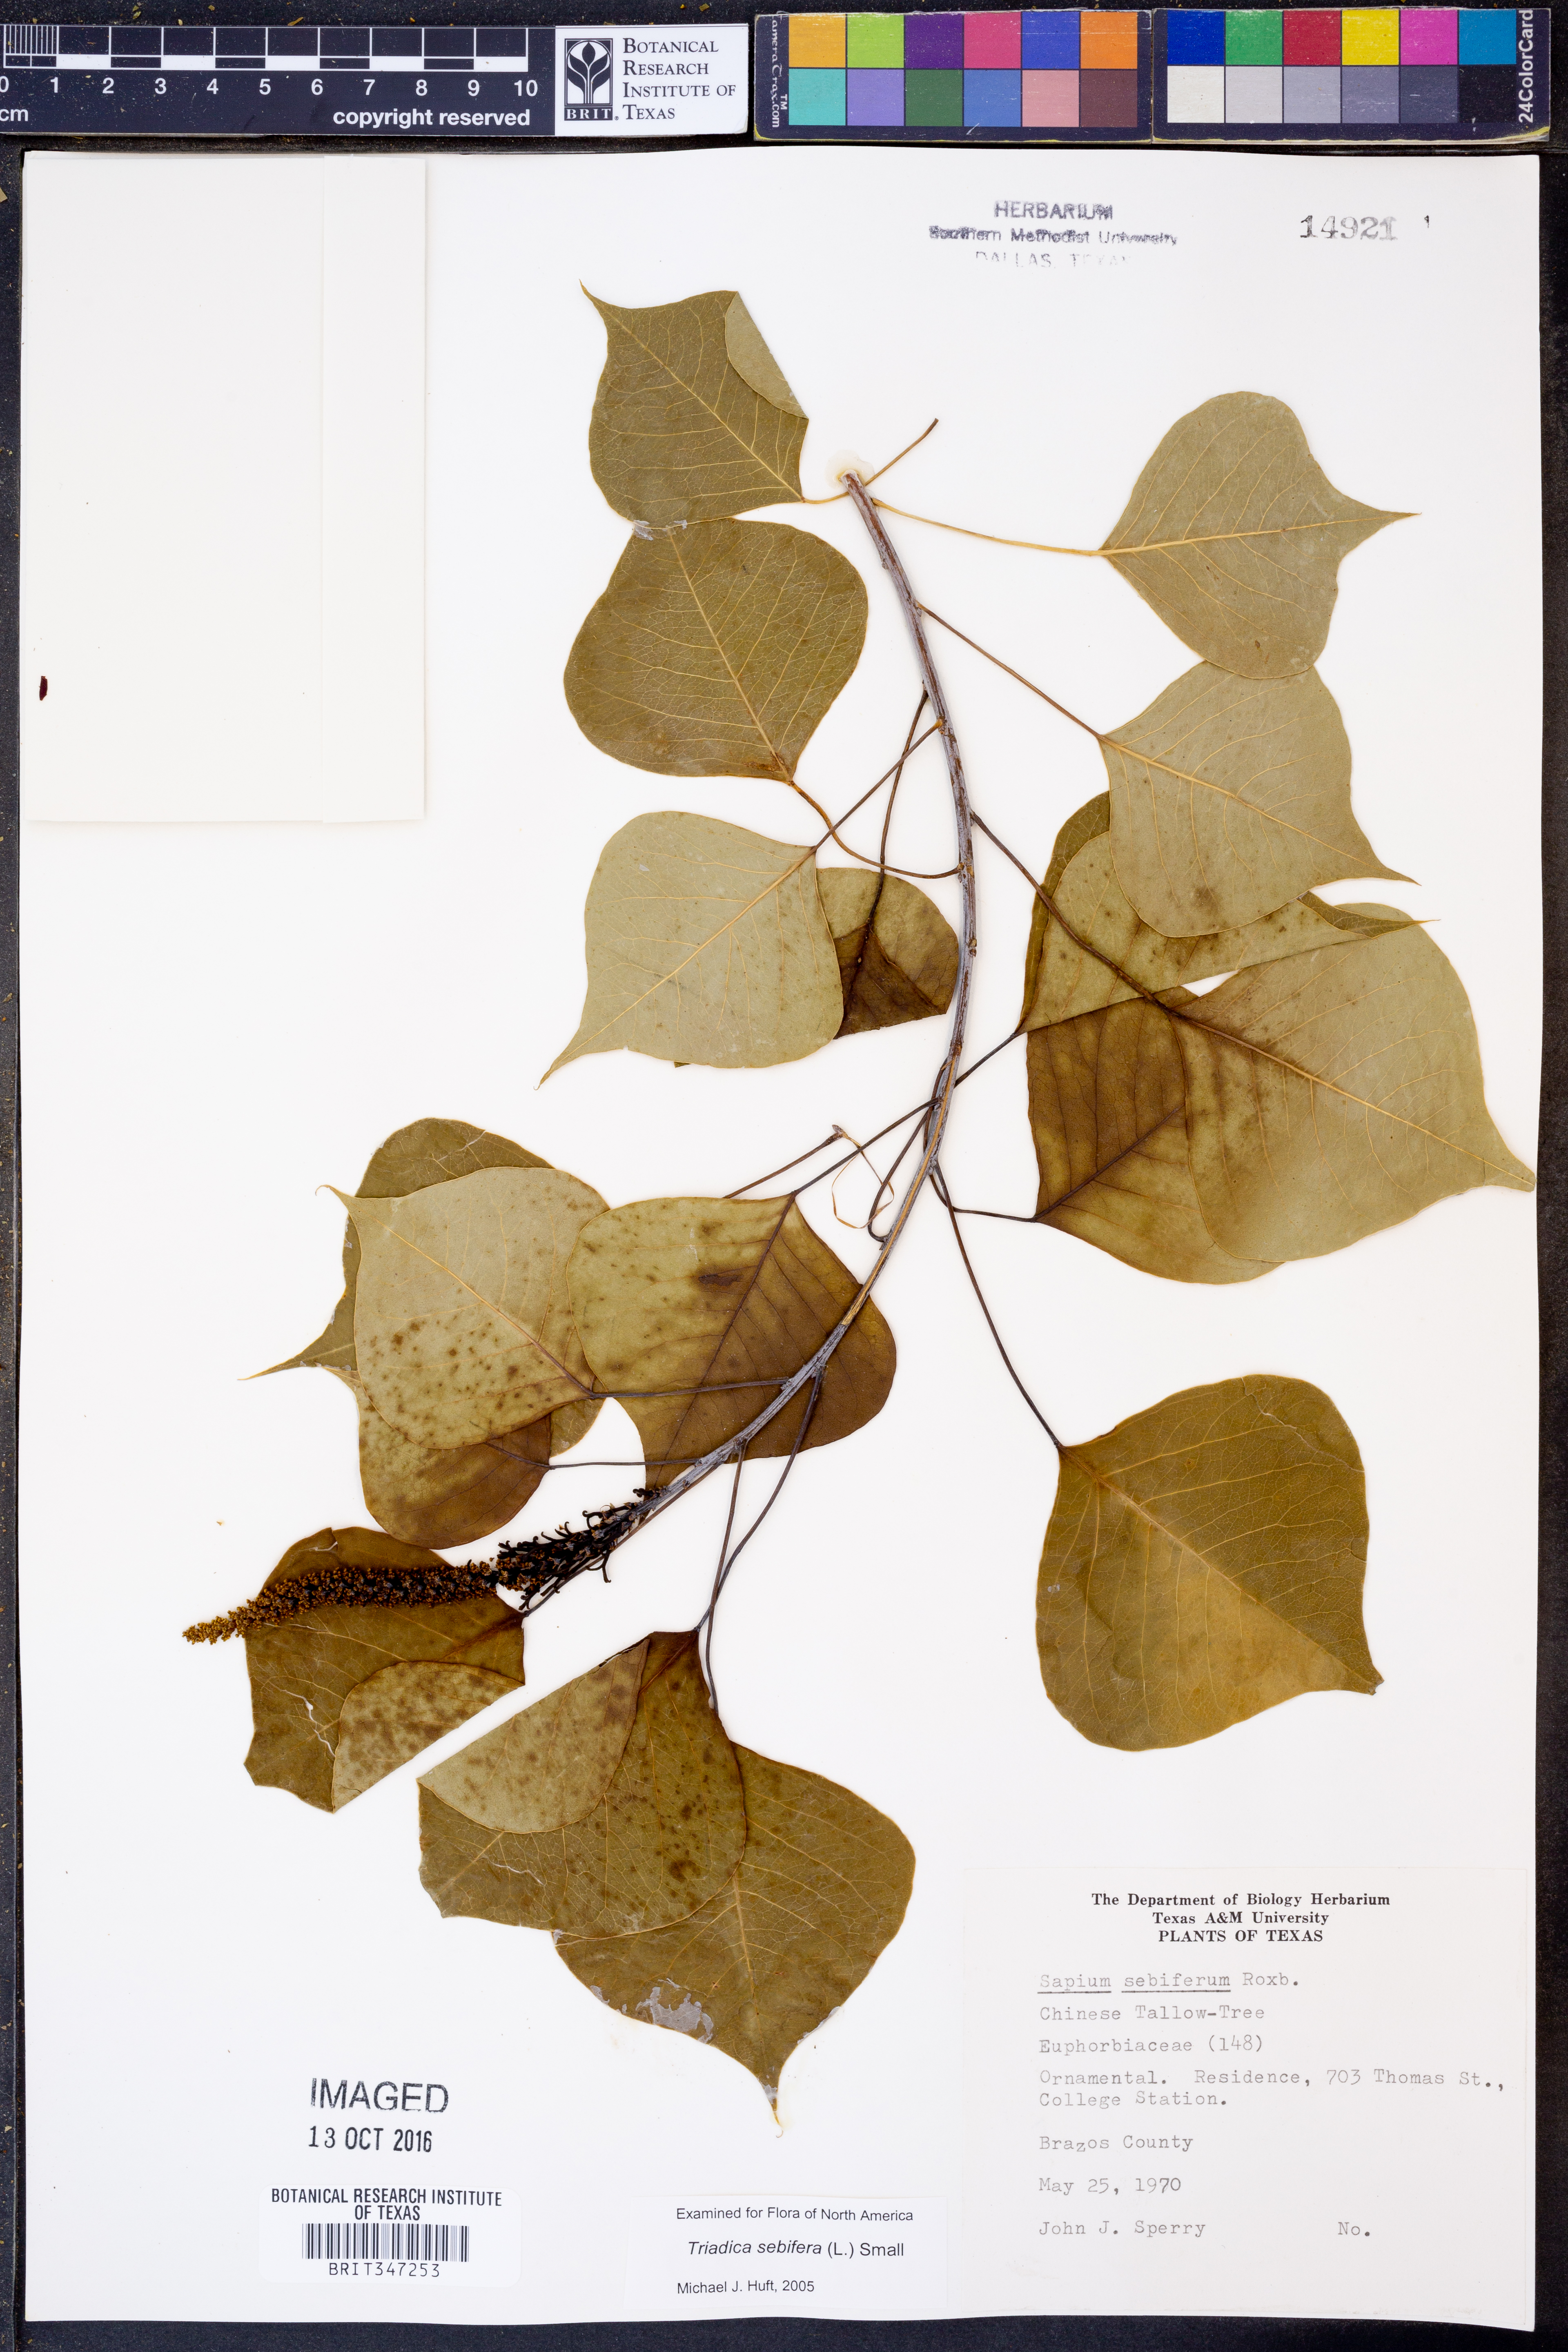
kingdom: Plantae
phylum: Tracheophyta
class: Magnoliopsida
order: Malpighiales
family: Euphorbiaceae
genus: Triadica
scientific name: Triadica sebifera
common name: Chinese tallow
